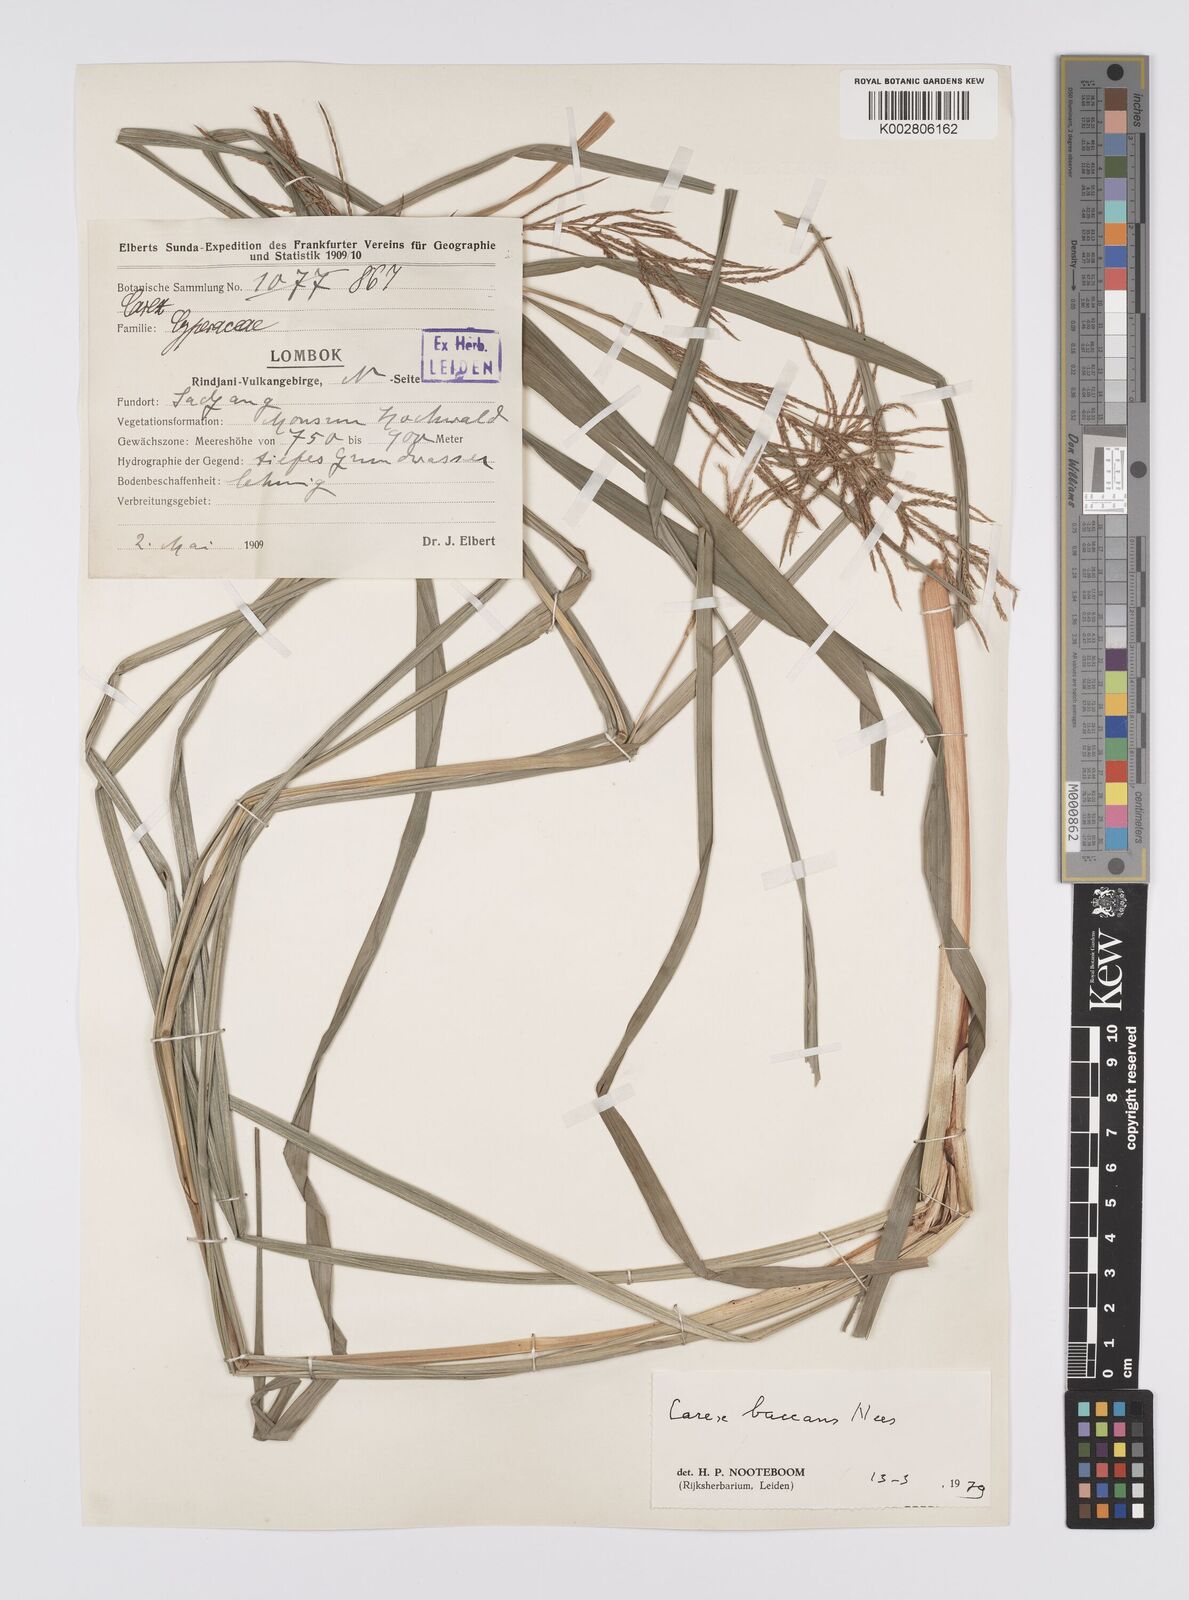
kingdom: Plantae
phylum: Tracheophyta
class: Liliopsida
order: Poales
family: Cyperaceae
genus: Carex
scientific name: Carex baccans
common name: Crimson seeded sedge
